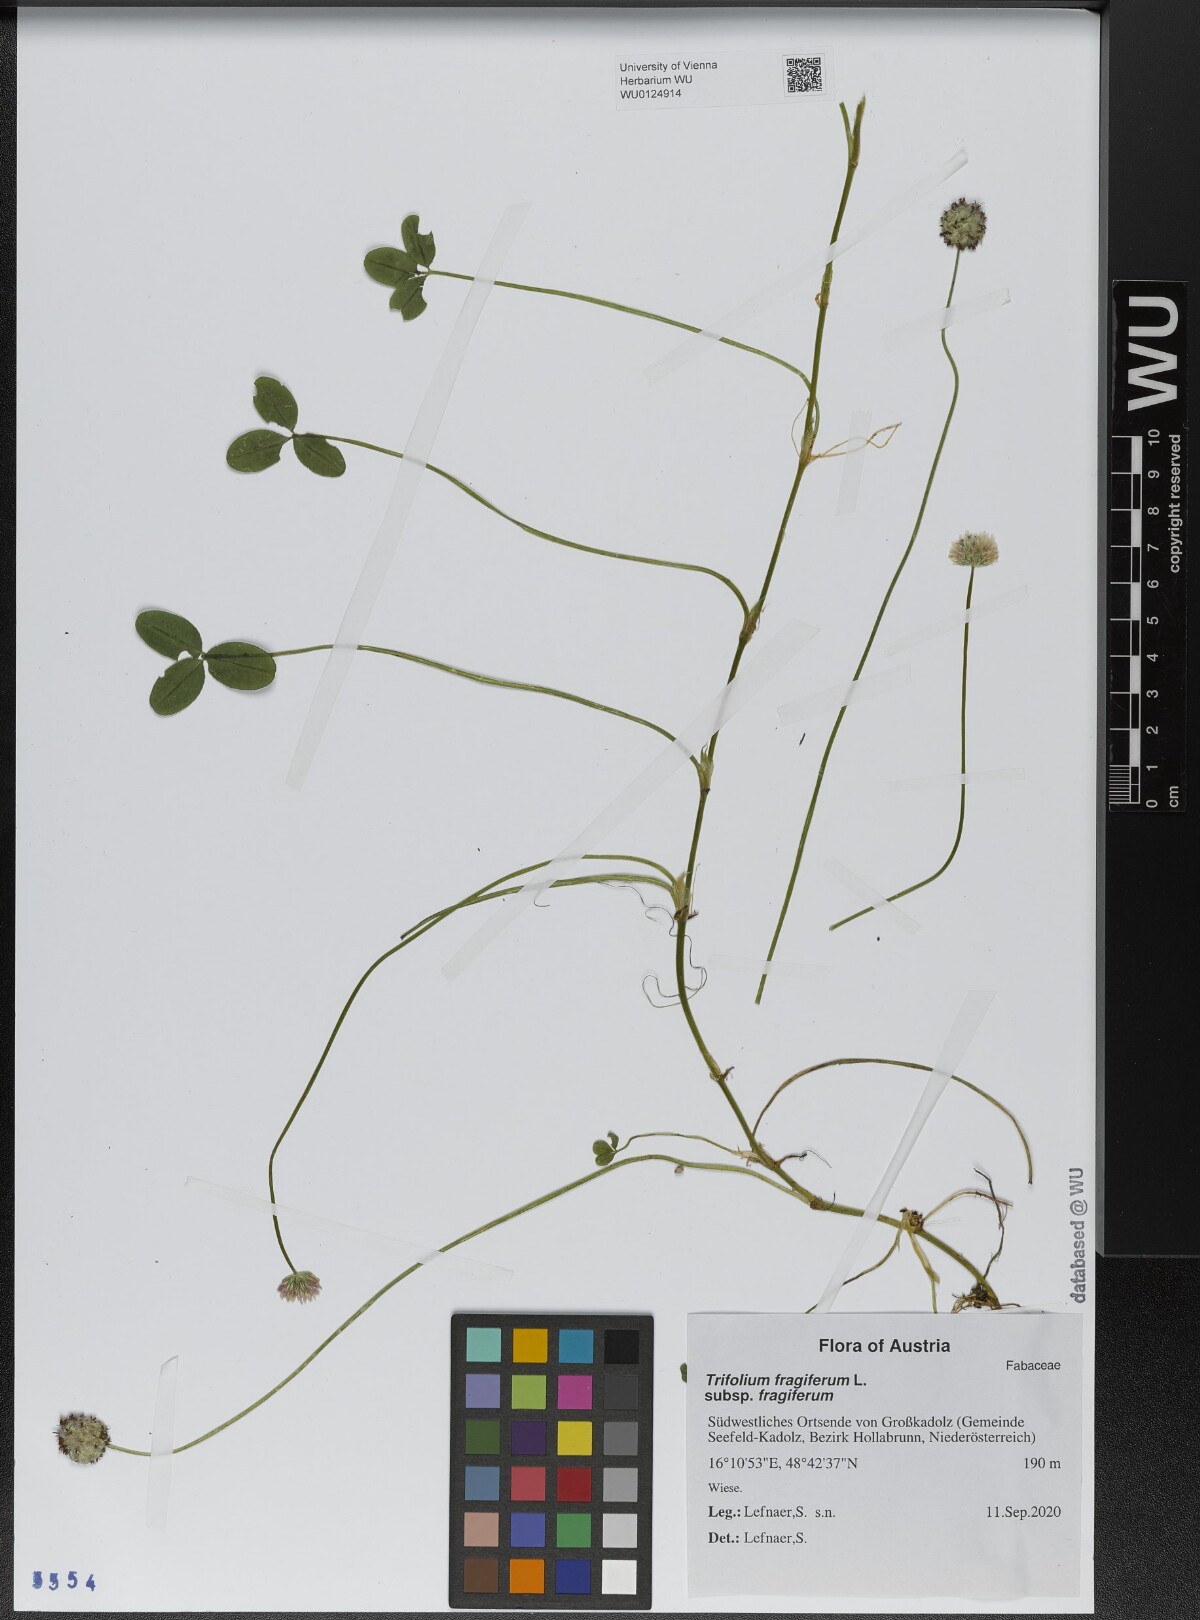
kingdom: Plantae
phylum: Tracheophyta
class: Magnoliopsida
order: Fabales
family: Fabaceae
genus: Trifolium
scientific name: Trifolium fragiferum
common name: Strawberry clover
